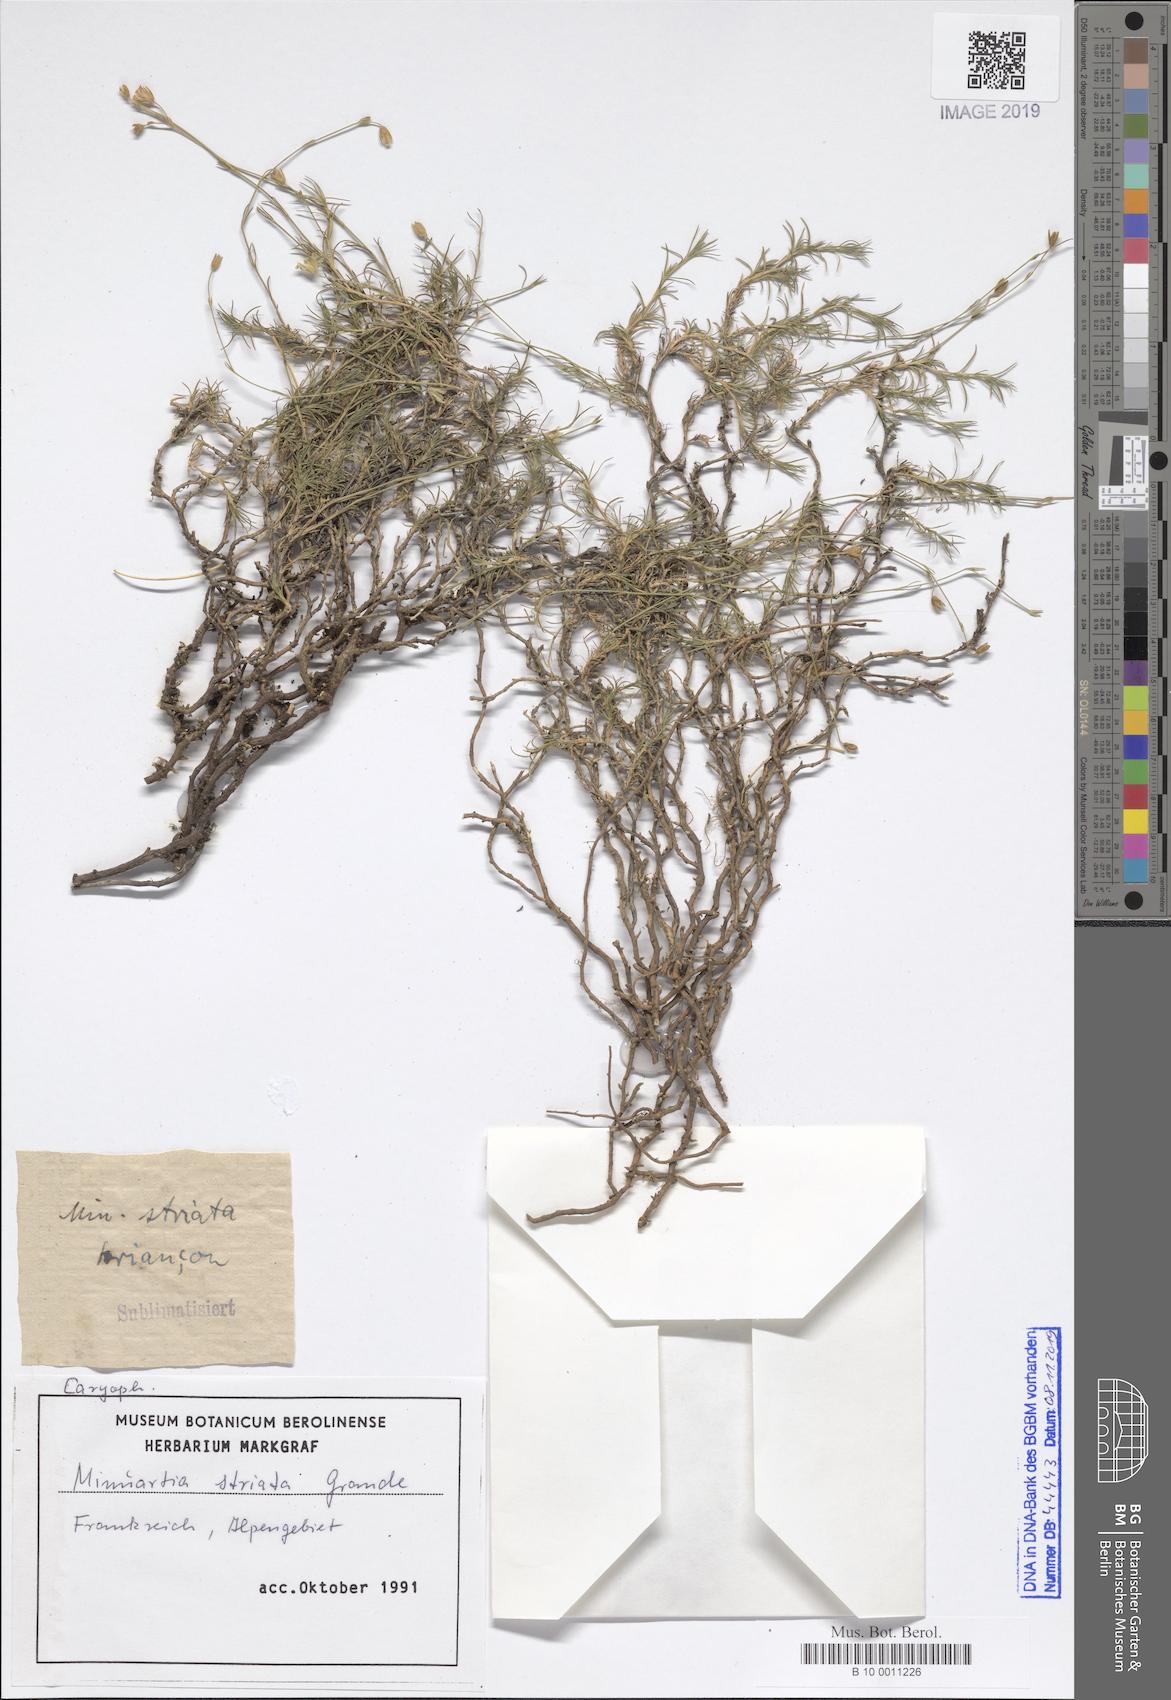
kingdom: Plantae
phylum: Tracheophyta
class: Magnoliopsida
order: Caryophyllales
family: Caryophyllaceae
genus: Cherleria
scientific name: Cherleria laricifolia
